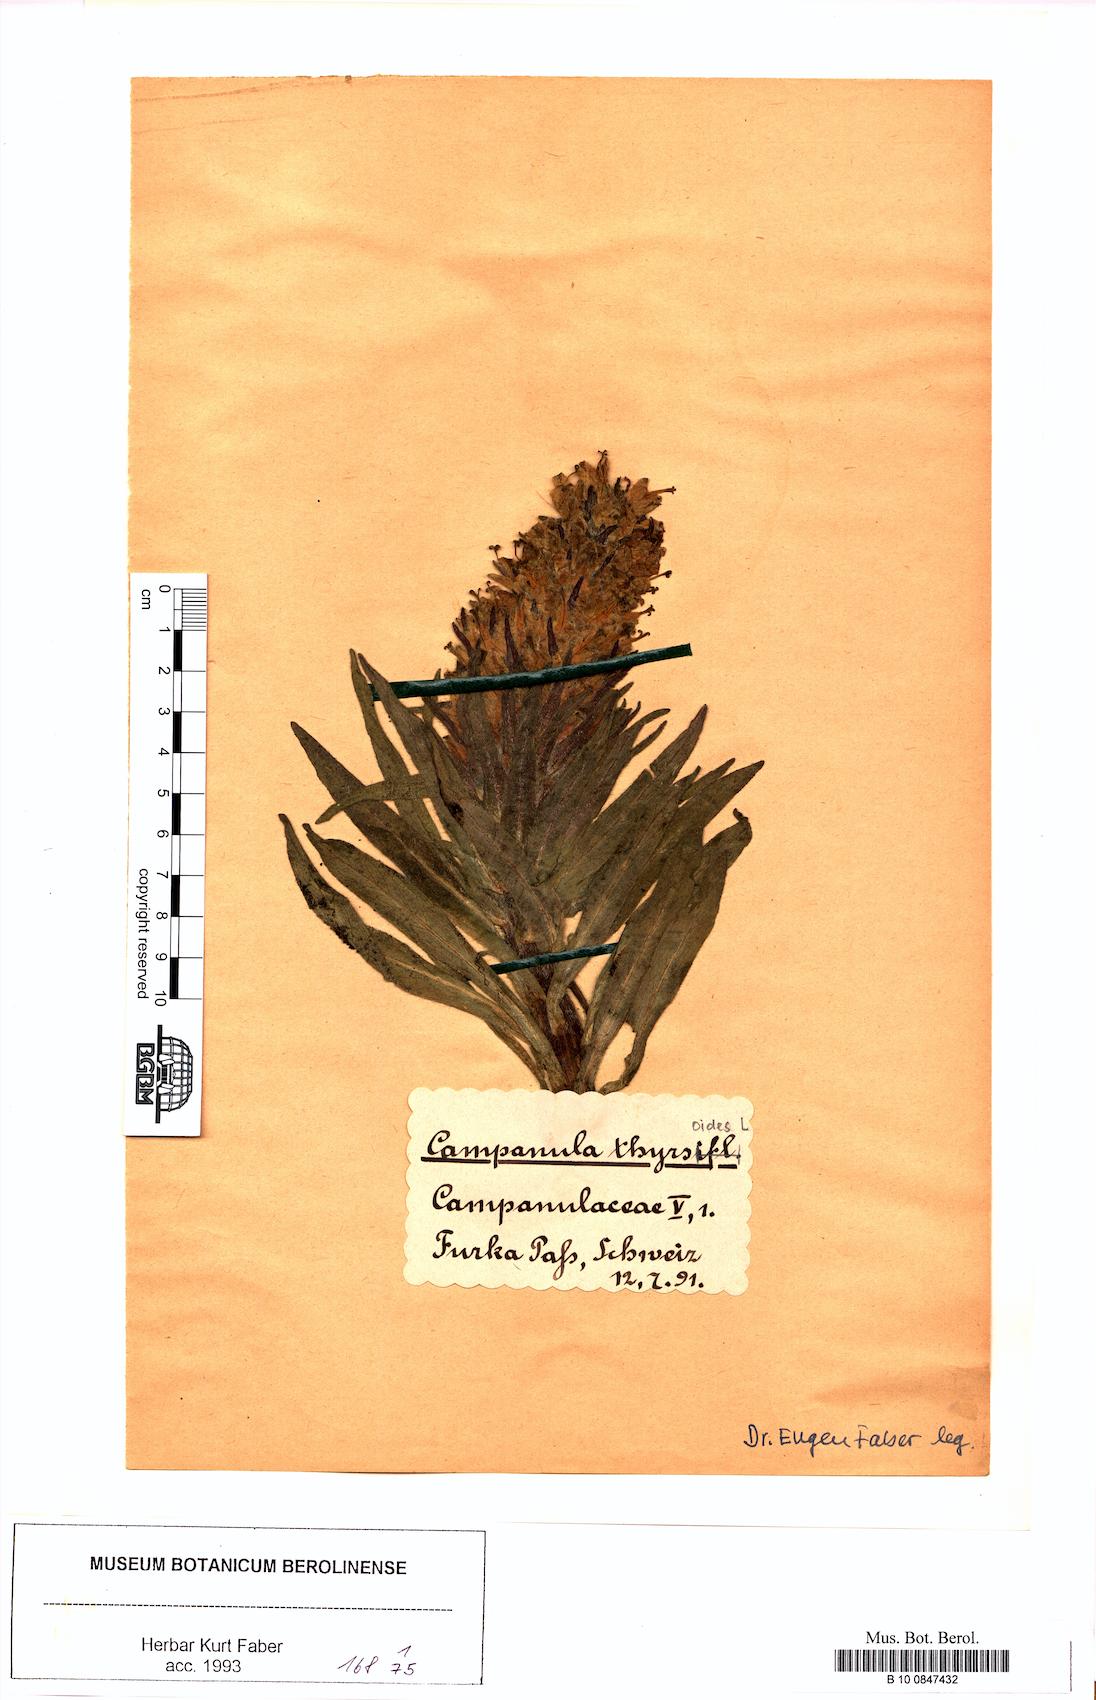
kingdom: Plantae
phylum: Tracheophyta
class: Magnoliopsida
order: Asterales
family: Campanulaceae
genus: Campanula
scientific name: Campanula thyrsoides
